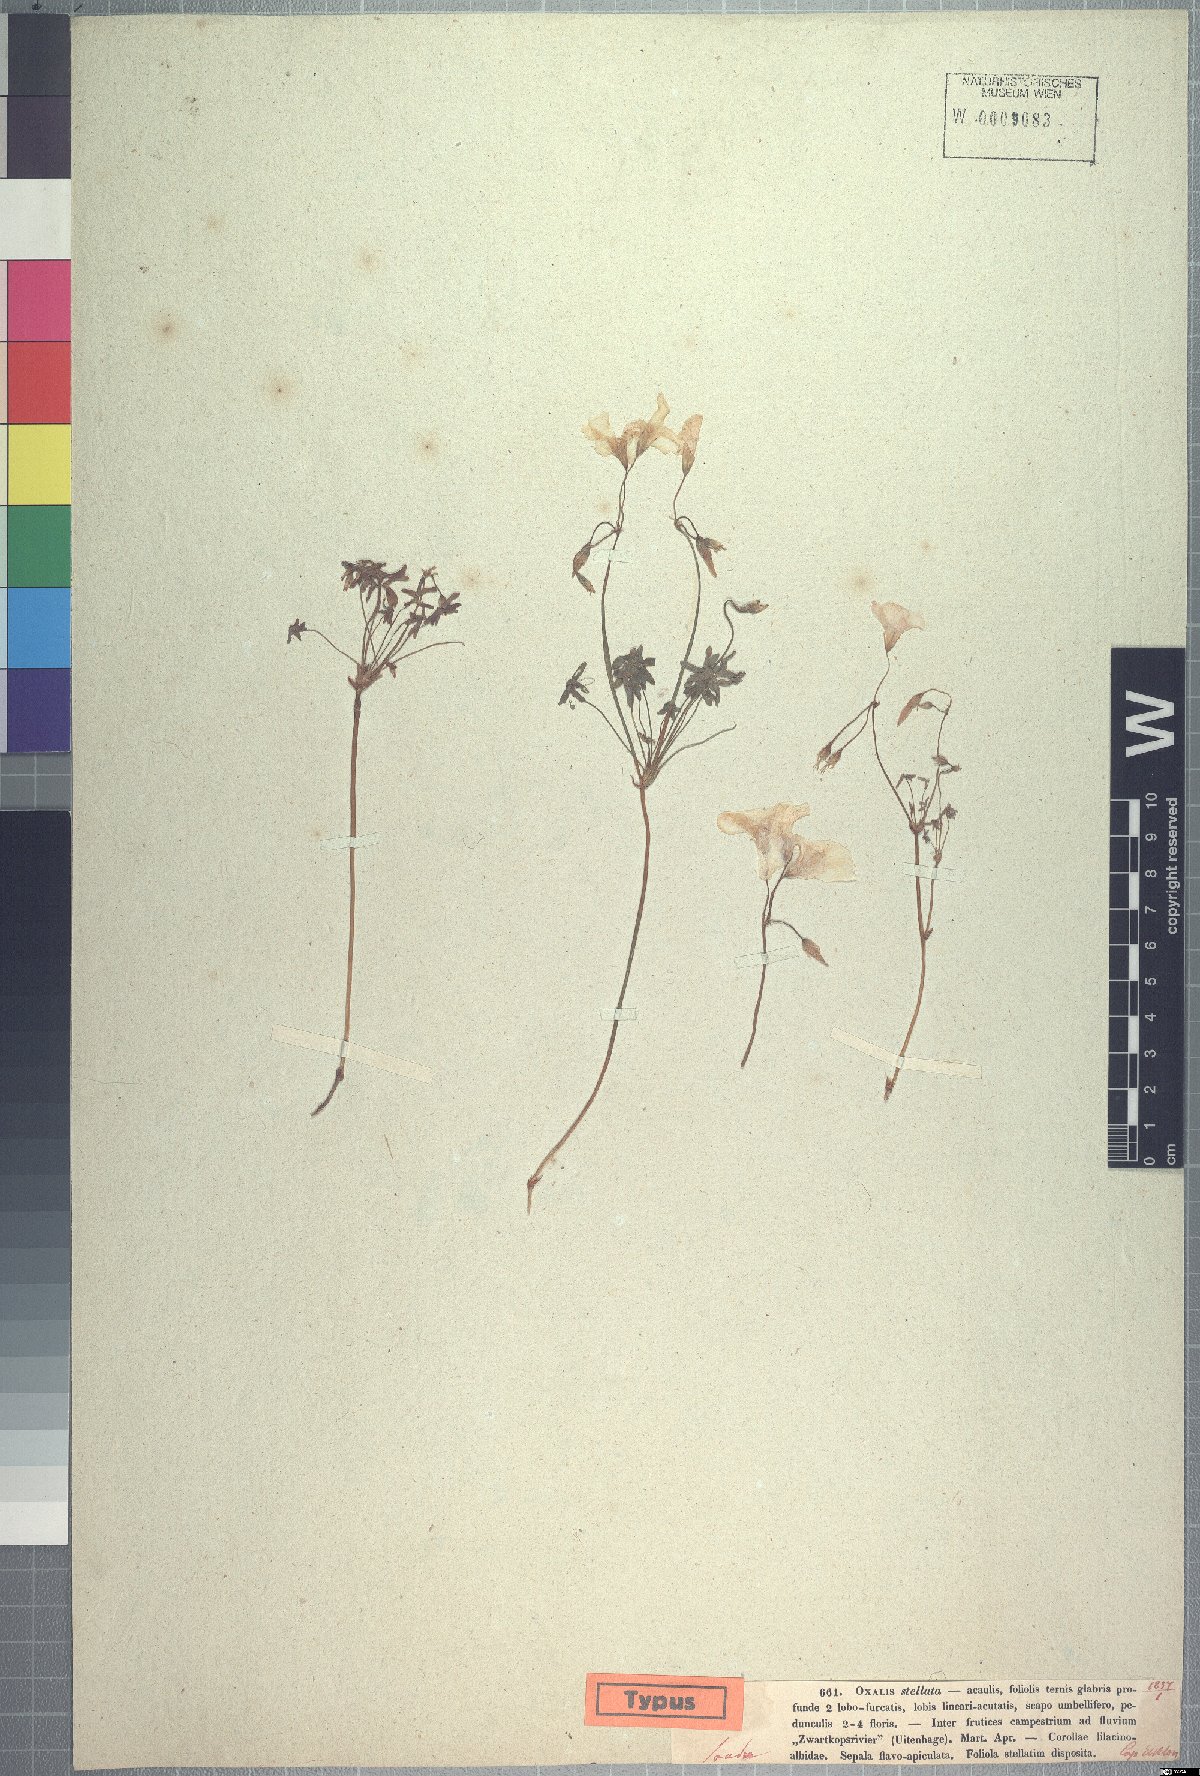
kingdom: Plantae
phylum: Tracheophyta
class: Magnoliopsida
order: Oxalidales
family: Oxalidaceae
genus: Oxalis
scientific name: Oxalis stellata
